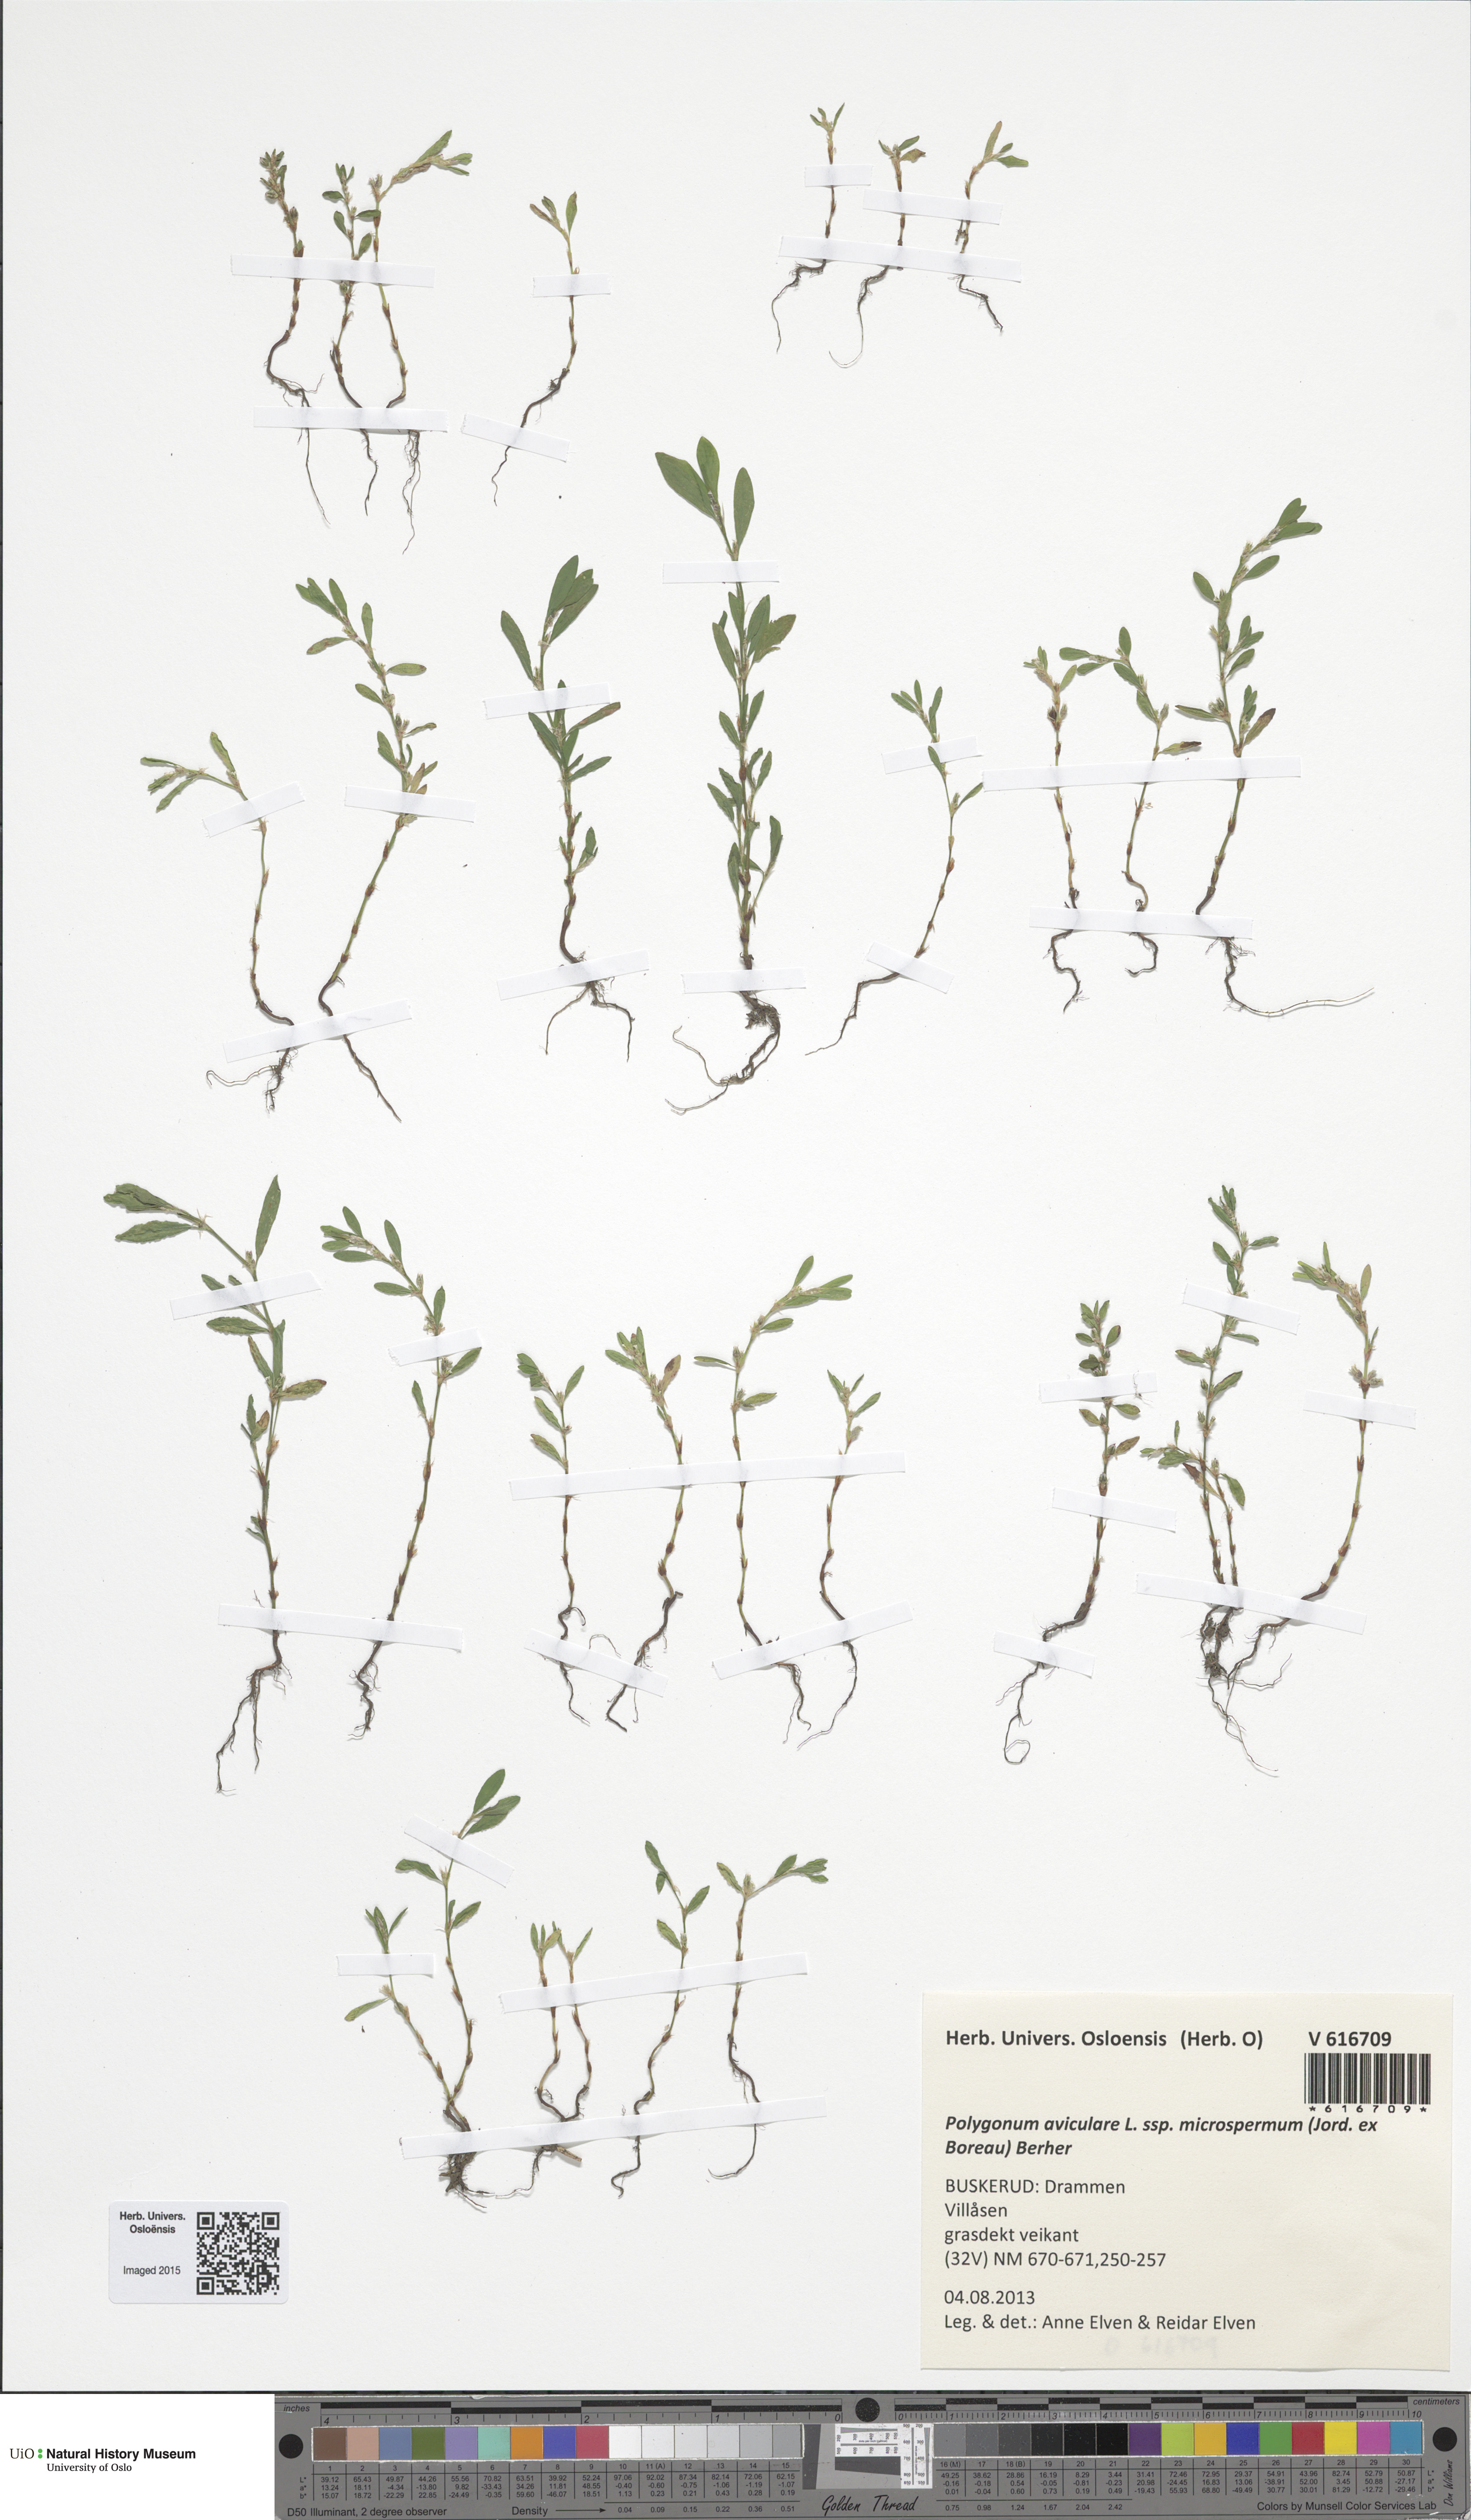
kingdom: Plantae
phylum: Tracheophyta
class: Magnoliopsida
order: Caryophyllales
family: Polygonaceae
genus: Polygonum
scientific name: Polygonum arenastrum
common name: Equal-leaved knotgrass
